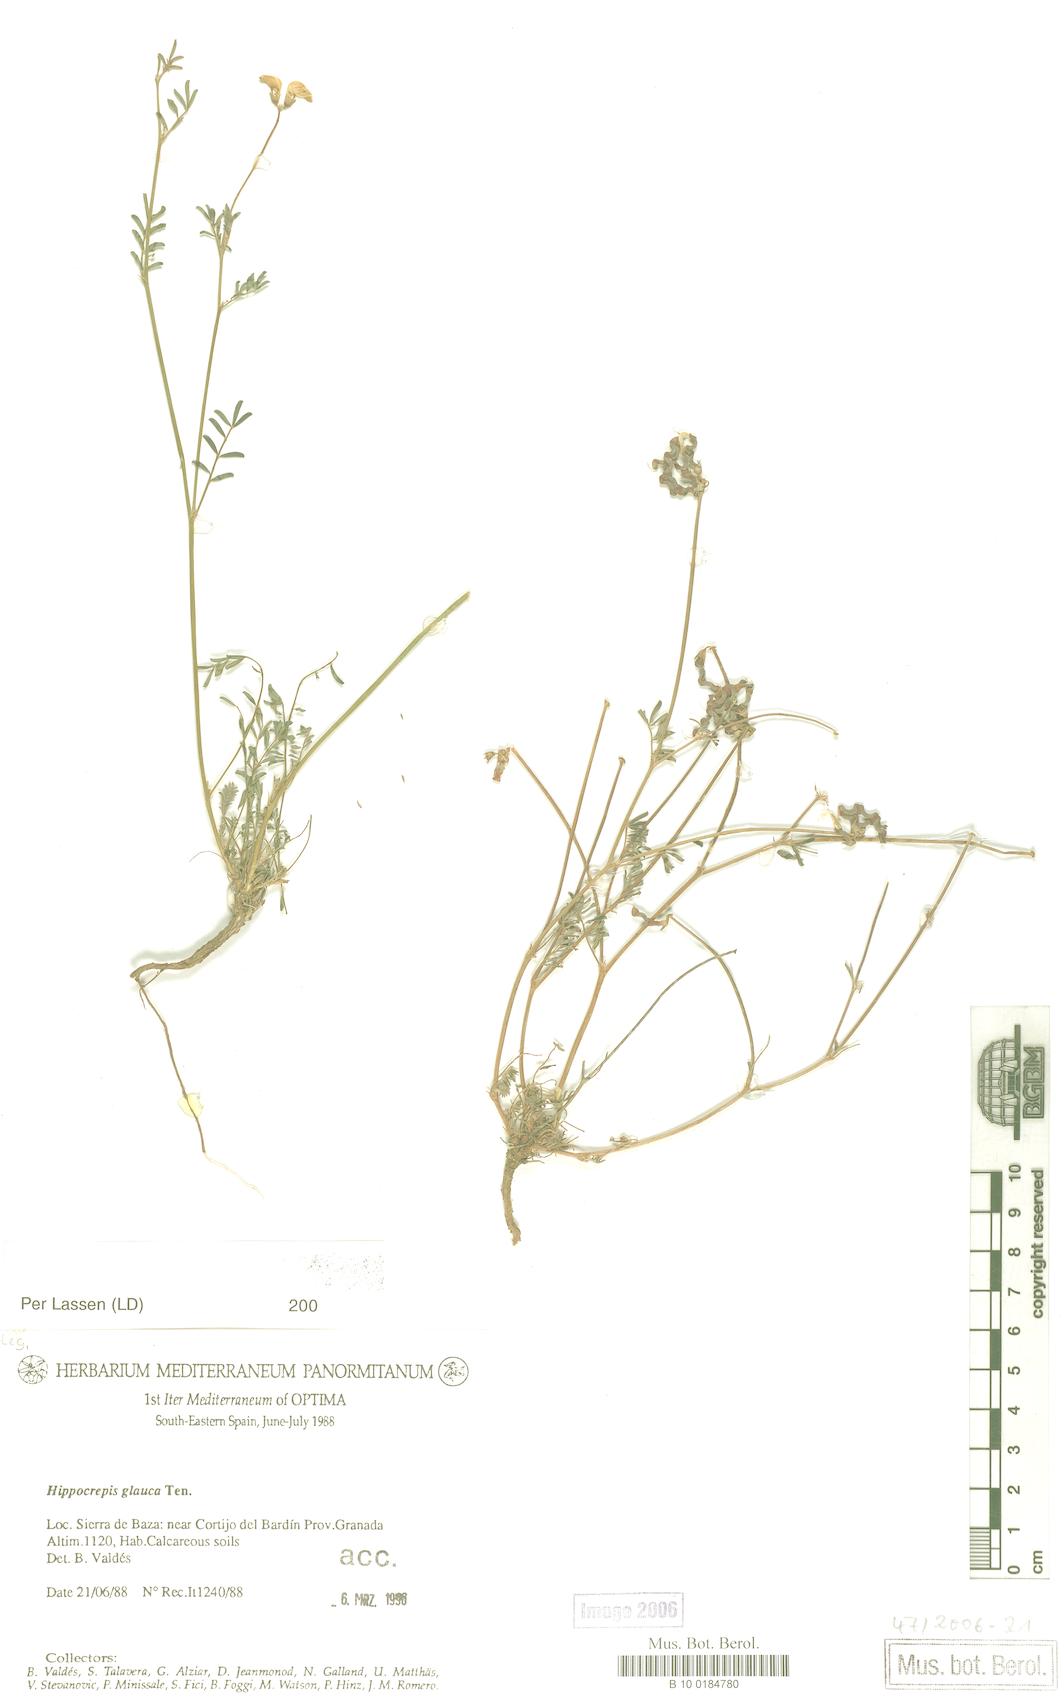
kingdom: Plantae
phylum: Tracheophyta
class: Magnoliopsida
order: Fabales
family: Fabaceae
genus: Hippocrepis
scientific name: Hippocrepis glauca
